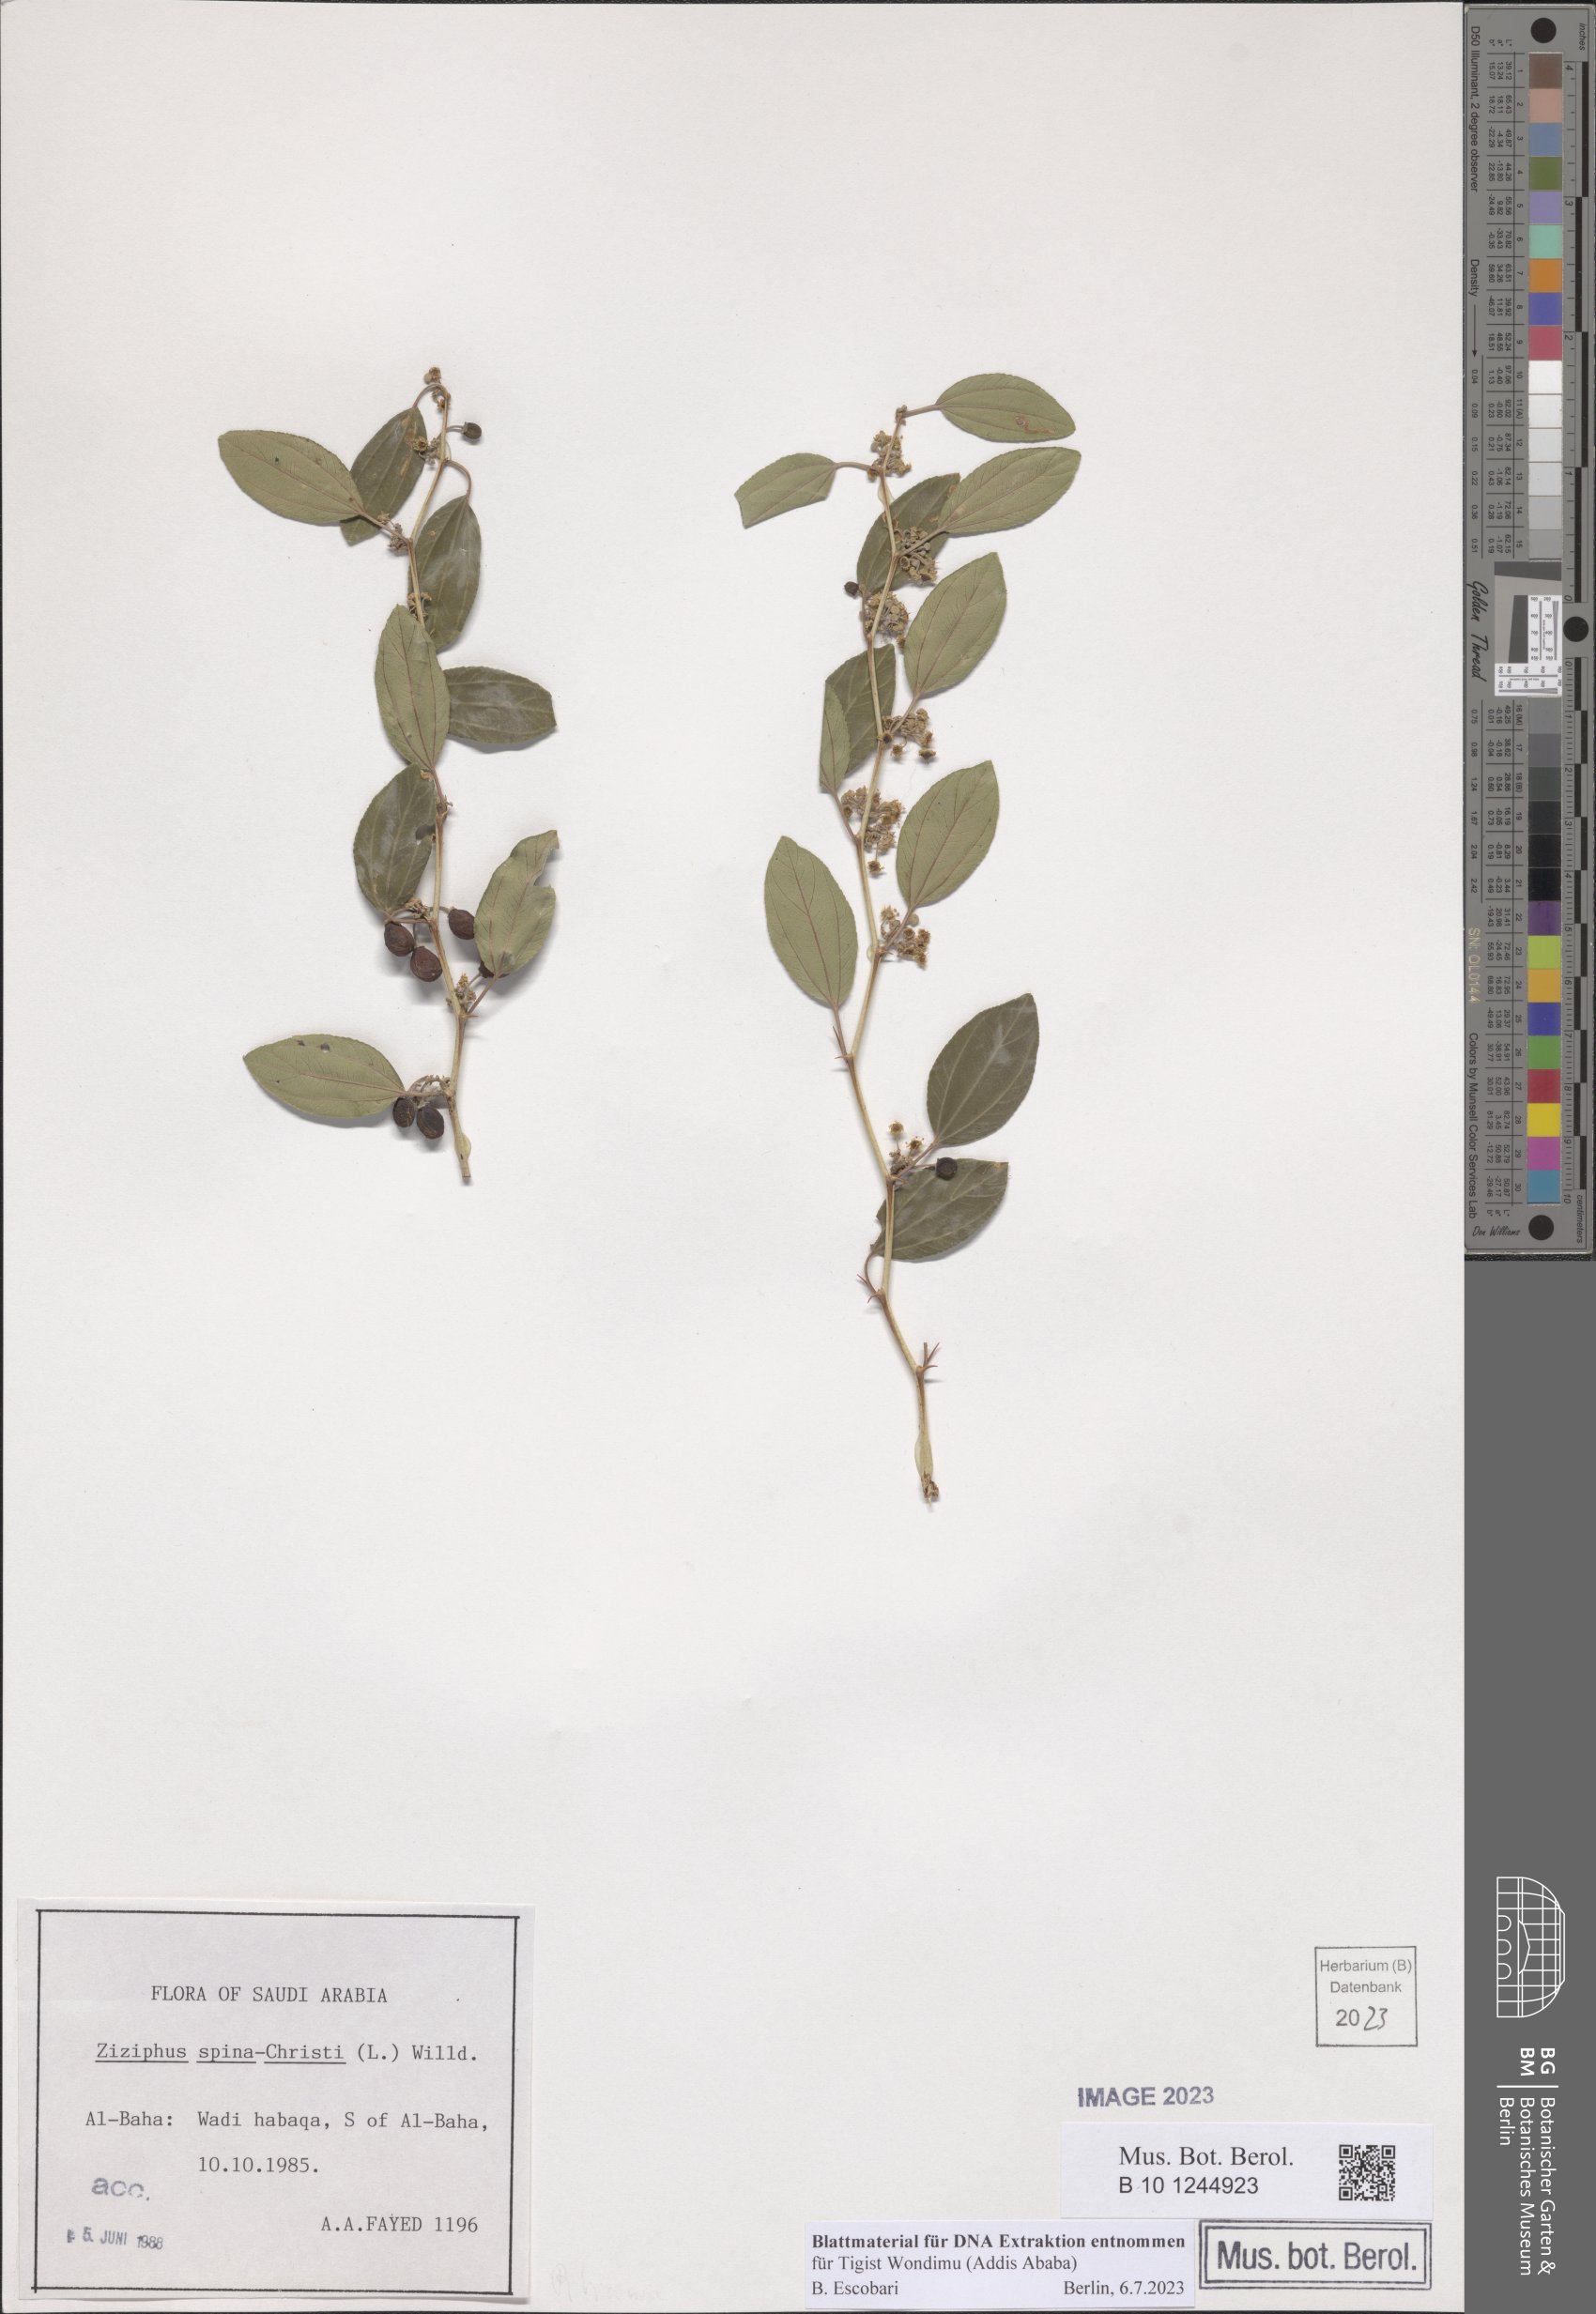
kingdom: Plantae
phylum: Tracheophyta
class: Magnoliopsida
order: Rosales
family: Rhamnaceae
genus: Ziziphus
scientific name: Ziziphus spina-christi
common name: Syrian christ-thorn
